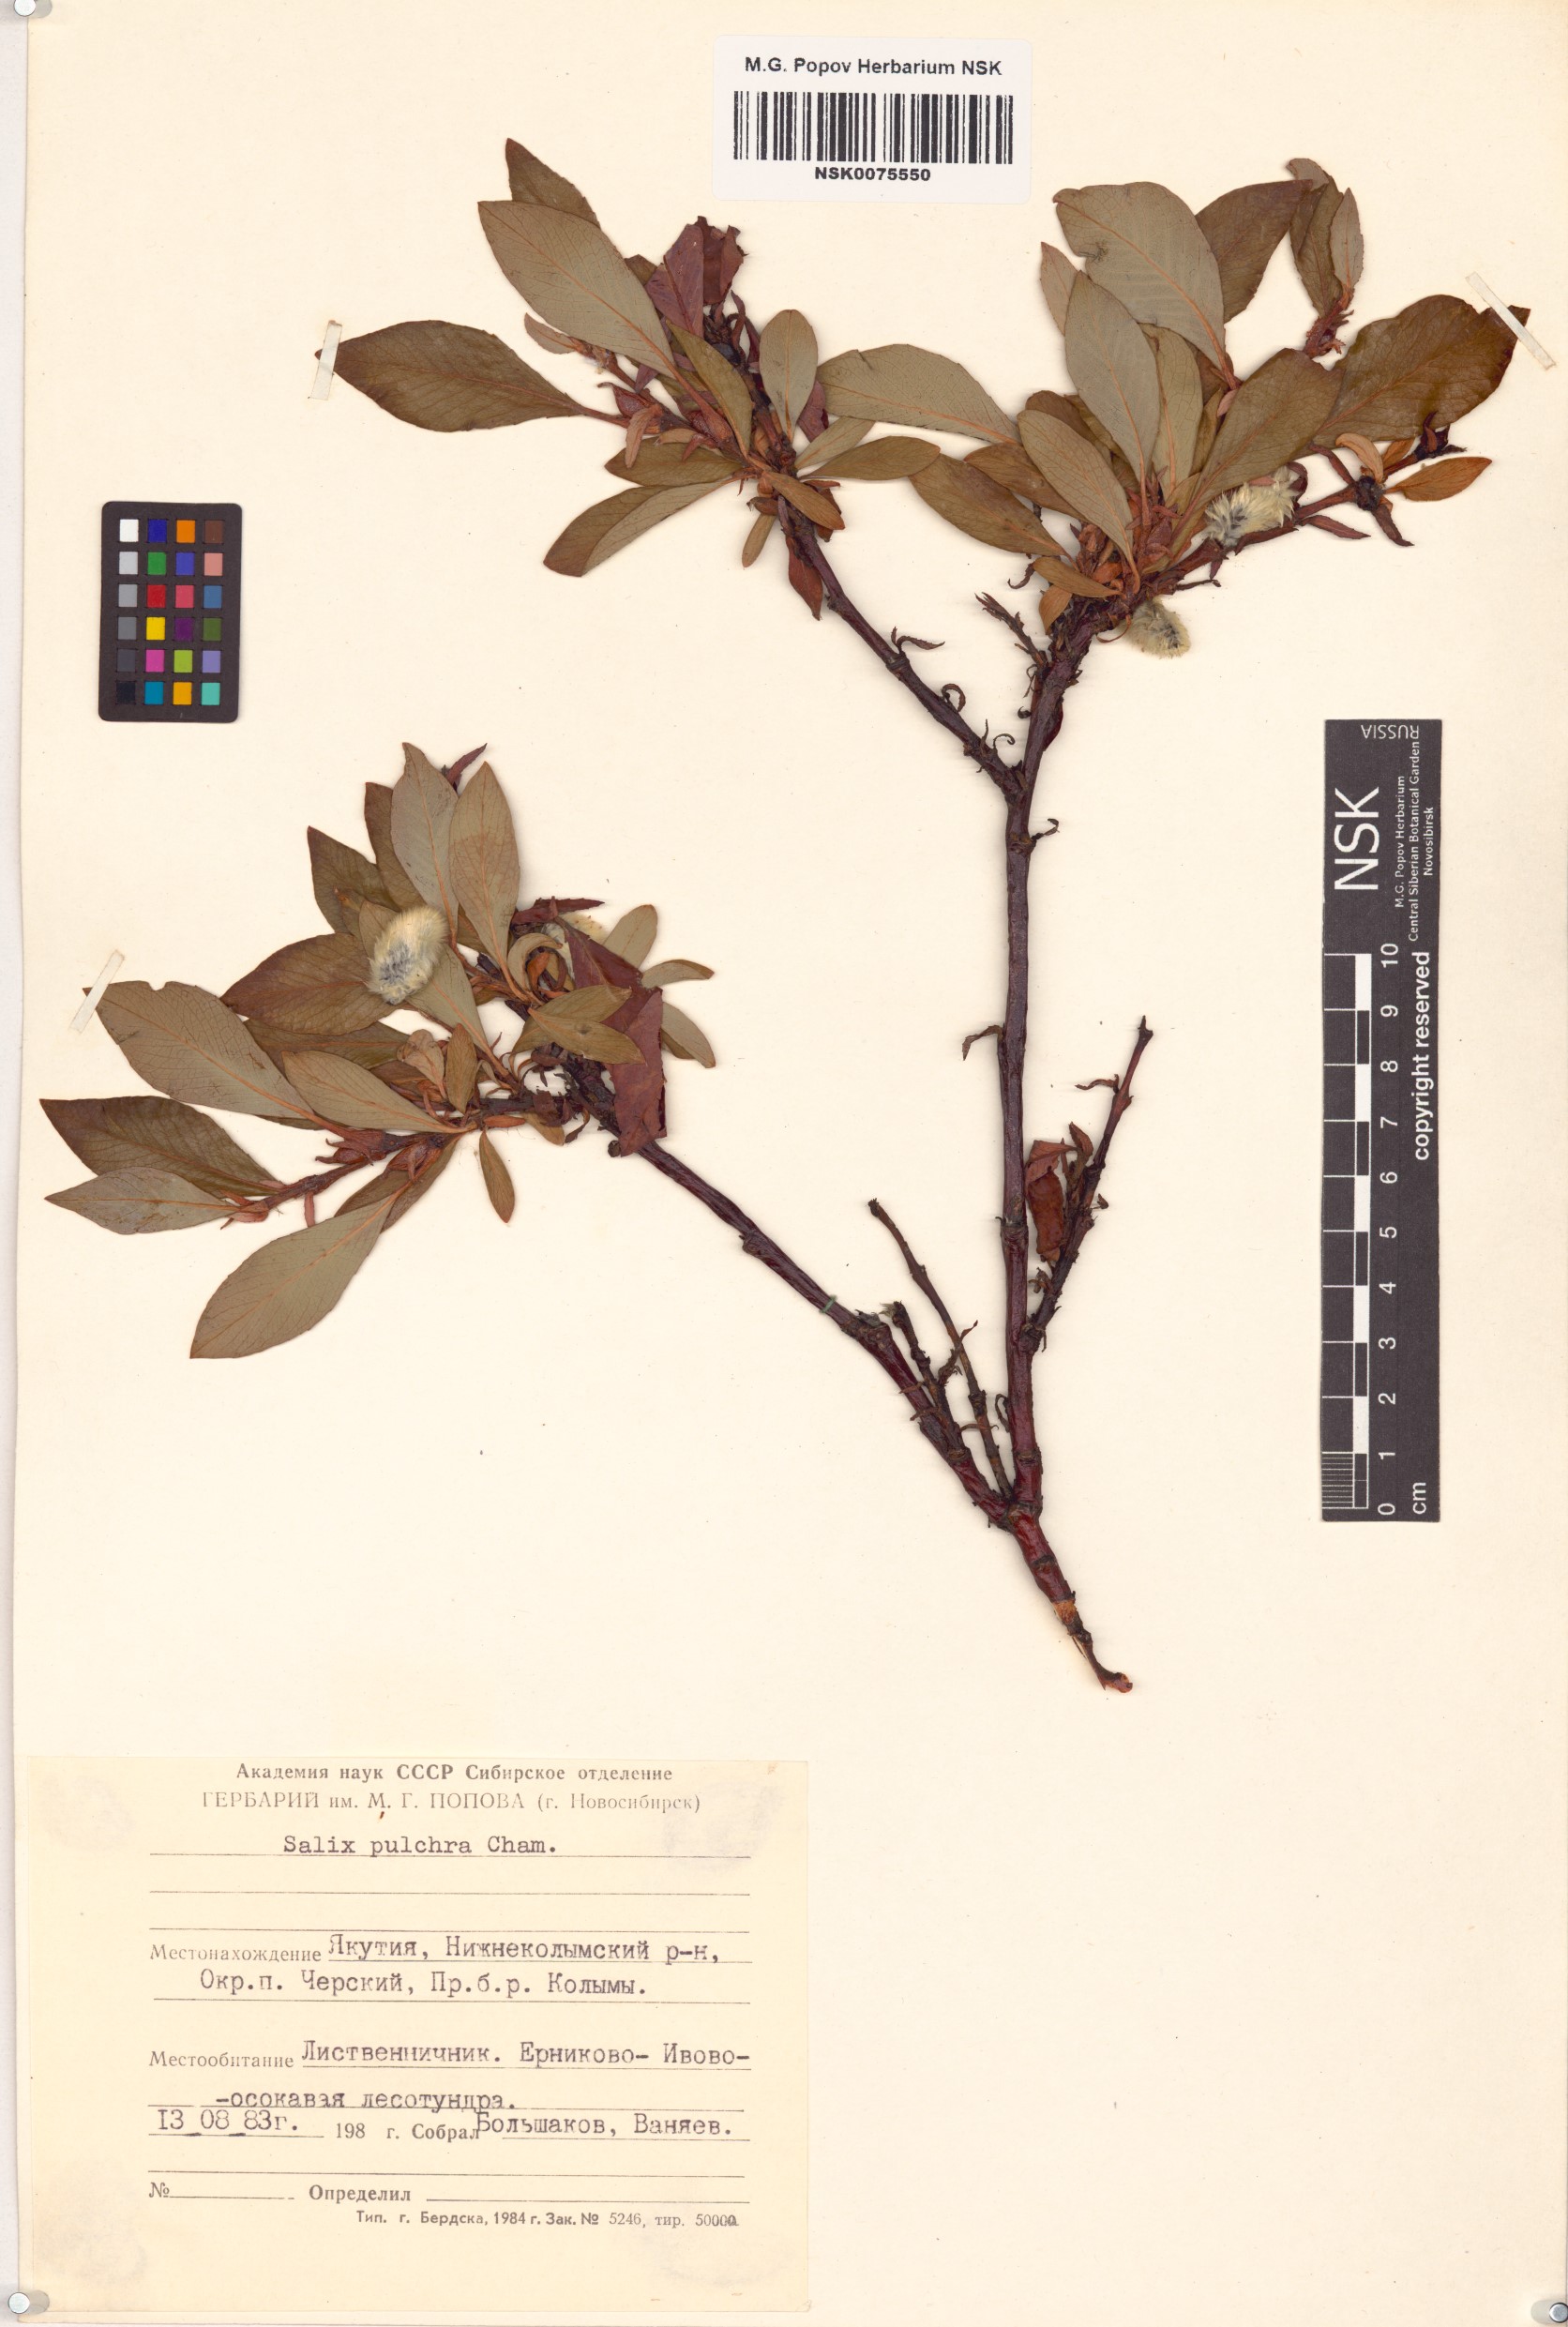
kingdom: Plantae
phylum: Tracheophyta
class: Magnoliopsida
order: Malpighiales
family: Salicaceae
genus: Salix
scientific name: Salix pulchra
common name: Diamond-leaved willow
